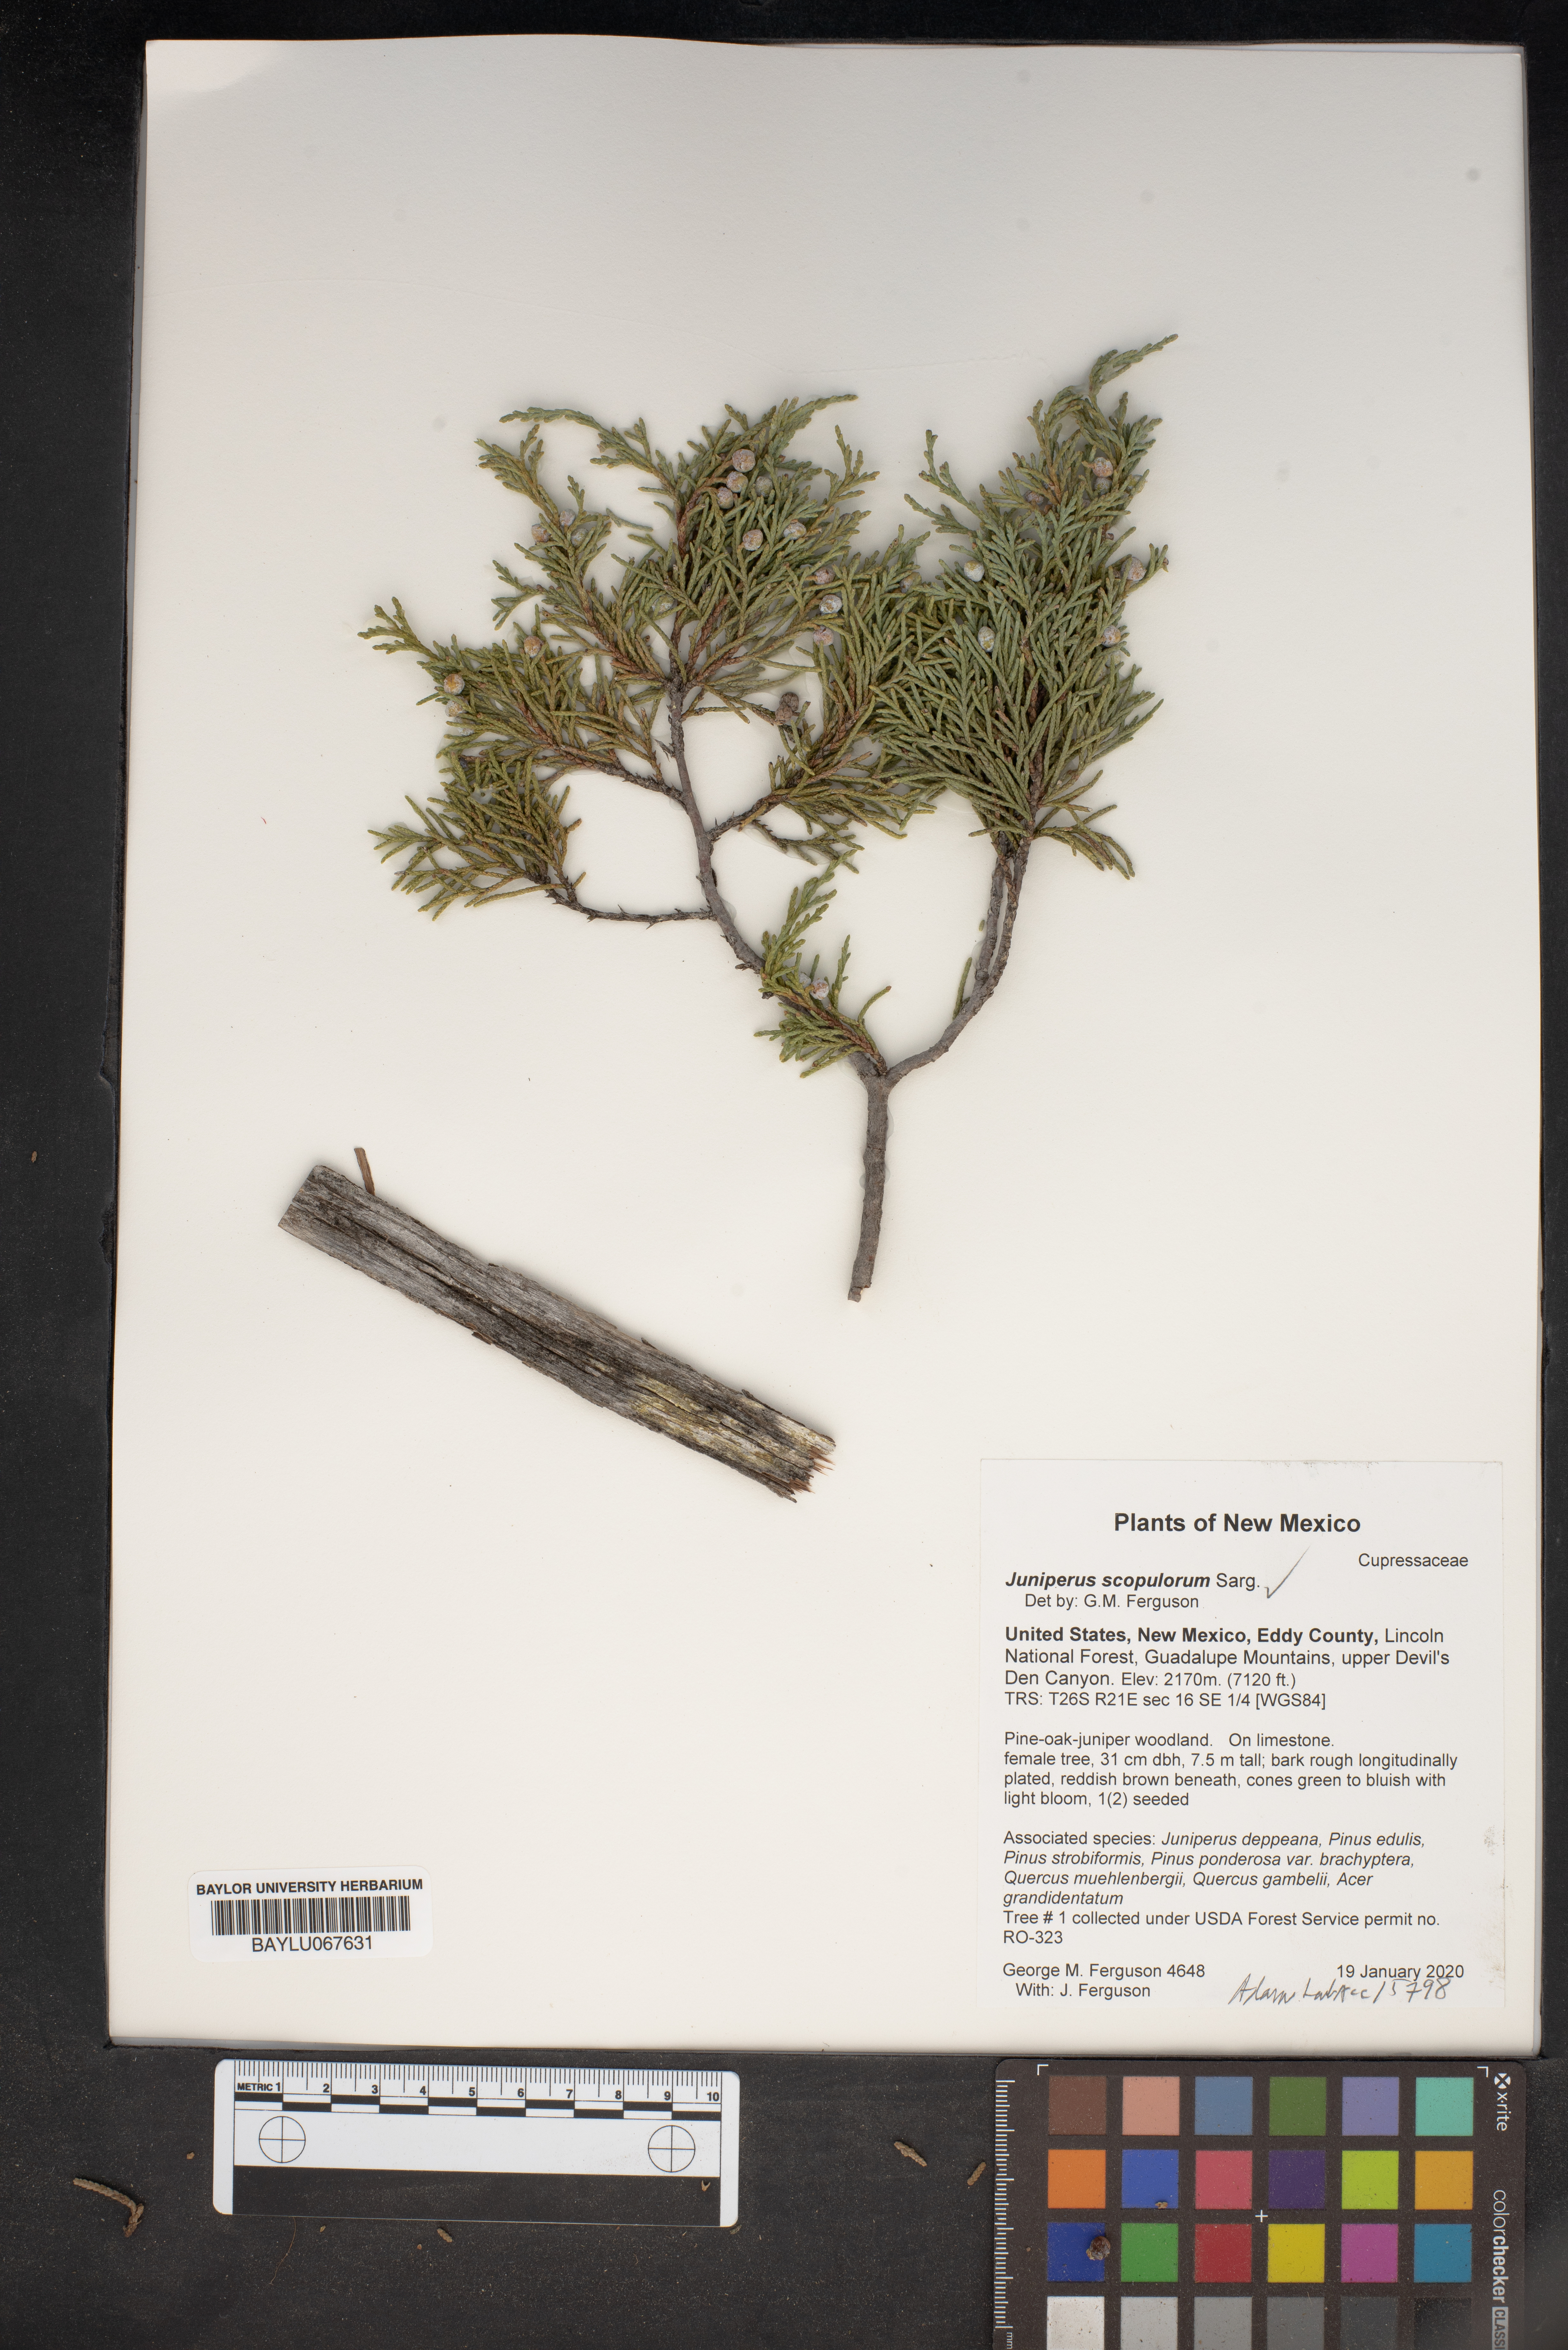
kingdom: Plantae
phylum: Tracheophyta
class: Pinopsida
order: Pinales
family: Cupressaceae
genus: Juniperus
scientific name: Juniperus scopulorum
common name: Rocky mountain juniper
